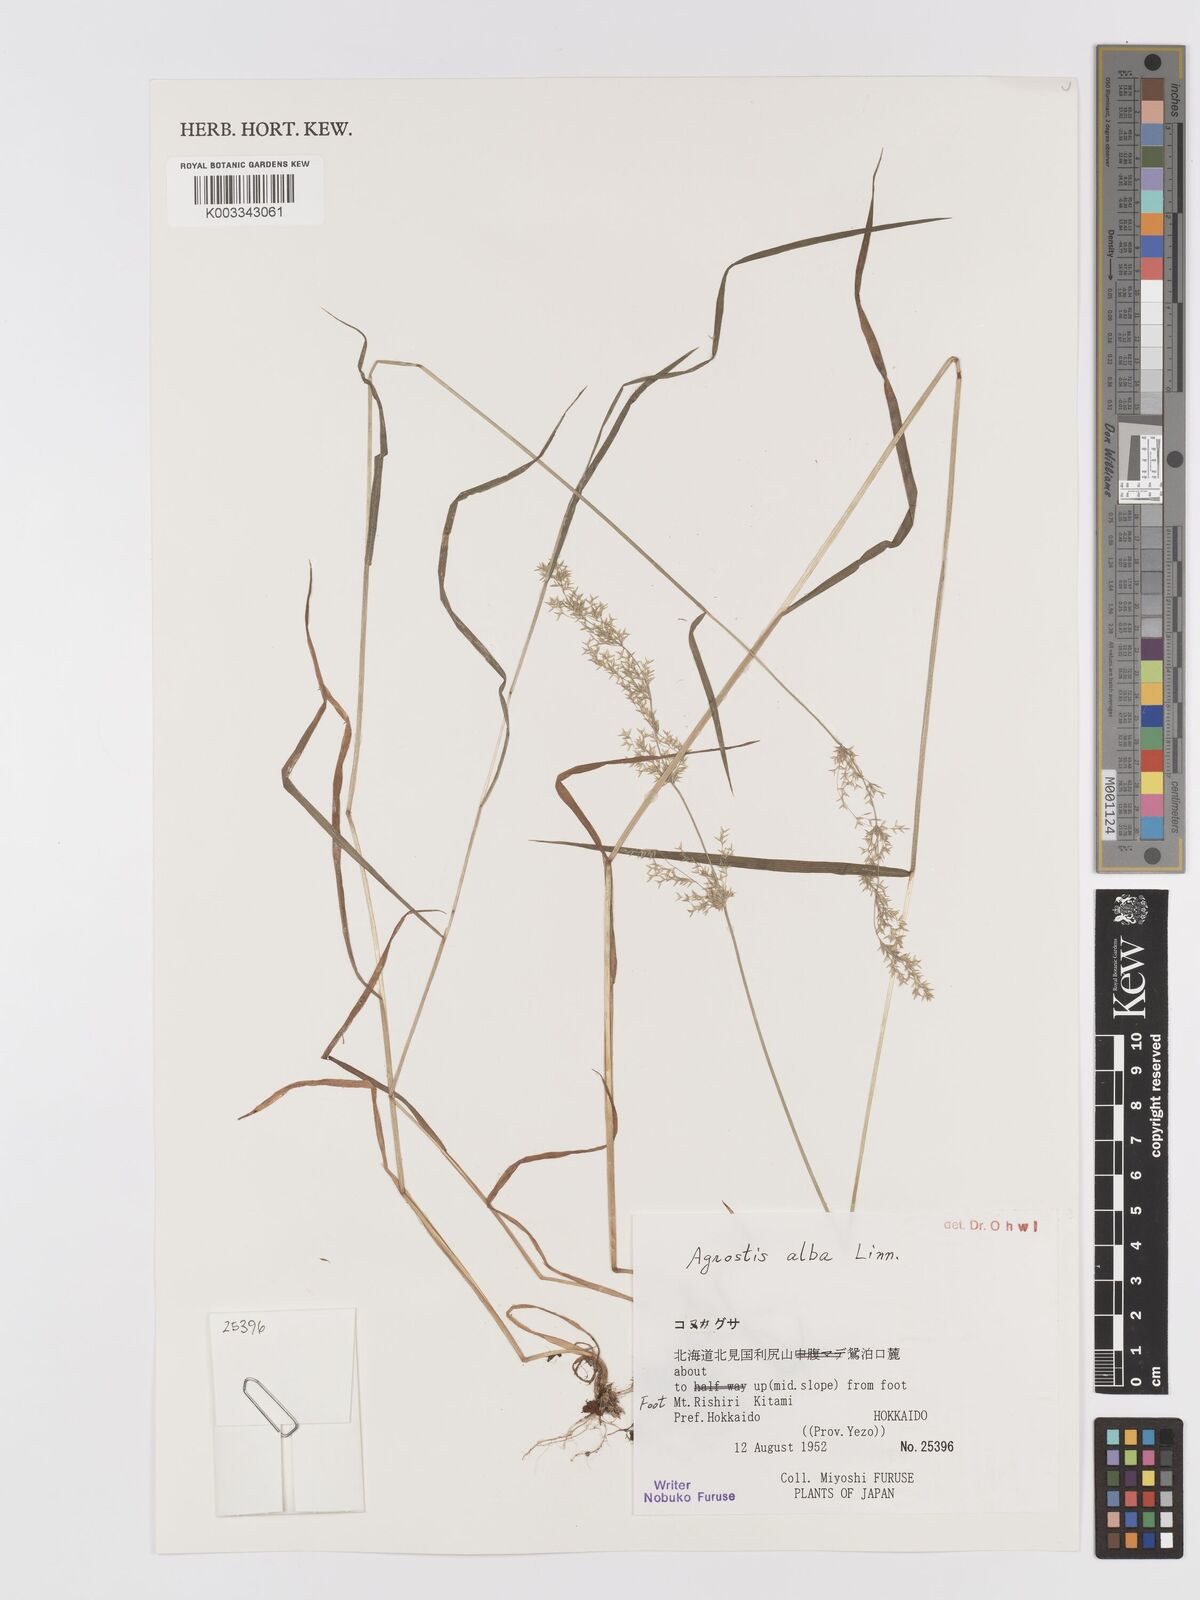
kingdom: Plantae
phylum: Tracheophyta
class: Liliopsida
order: Poales
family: Poaceae
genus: Agrostis
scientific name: Agrostis gigantea
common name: Black bent
